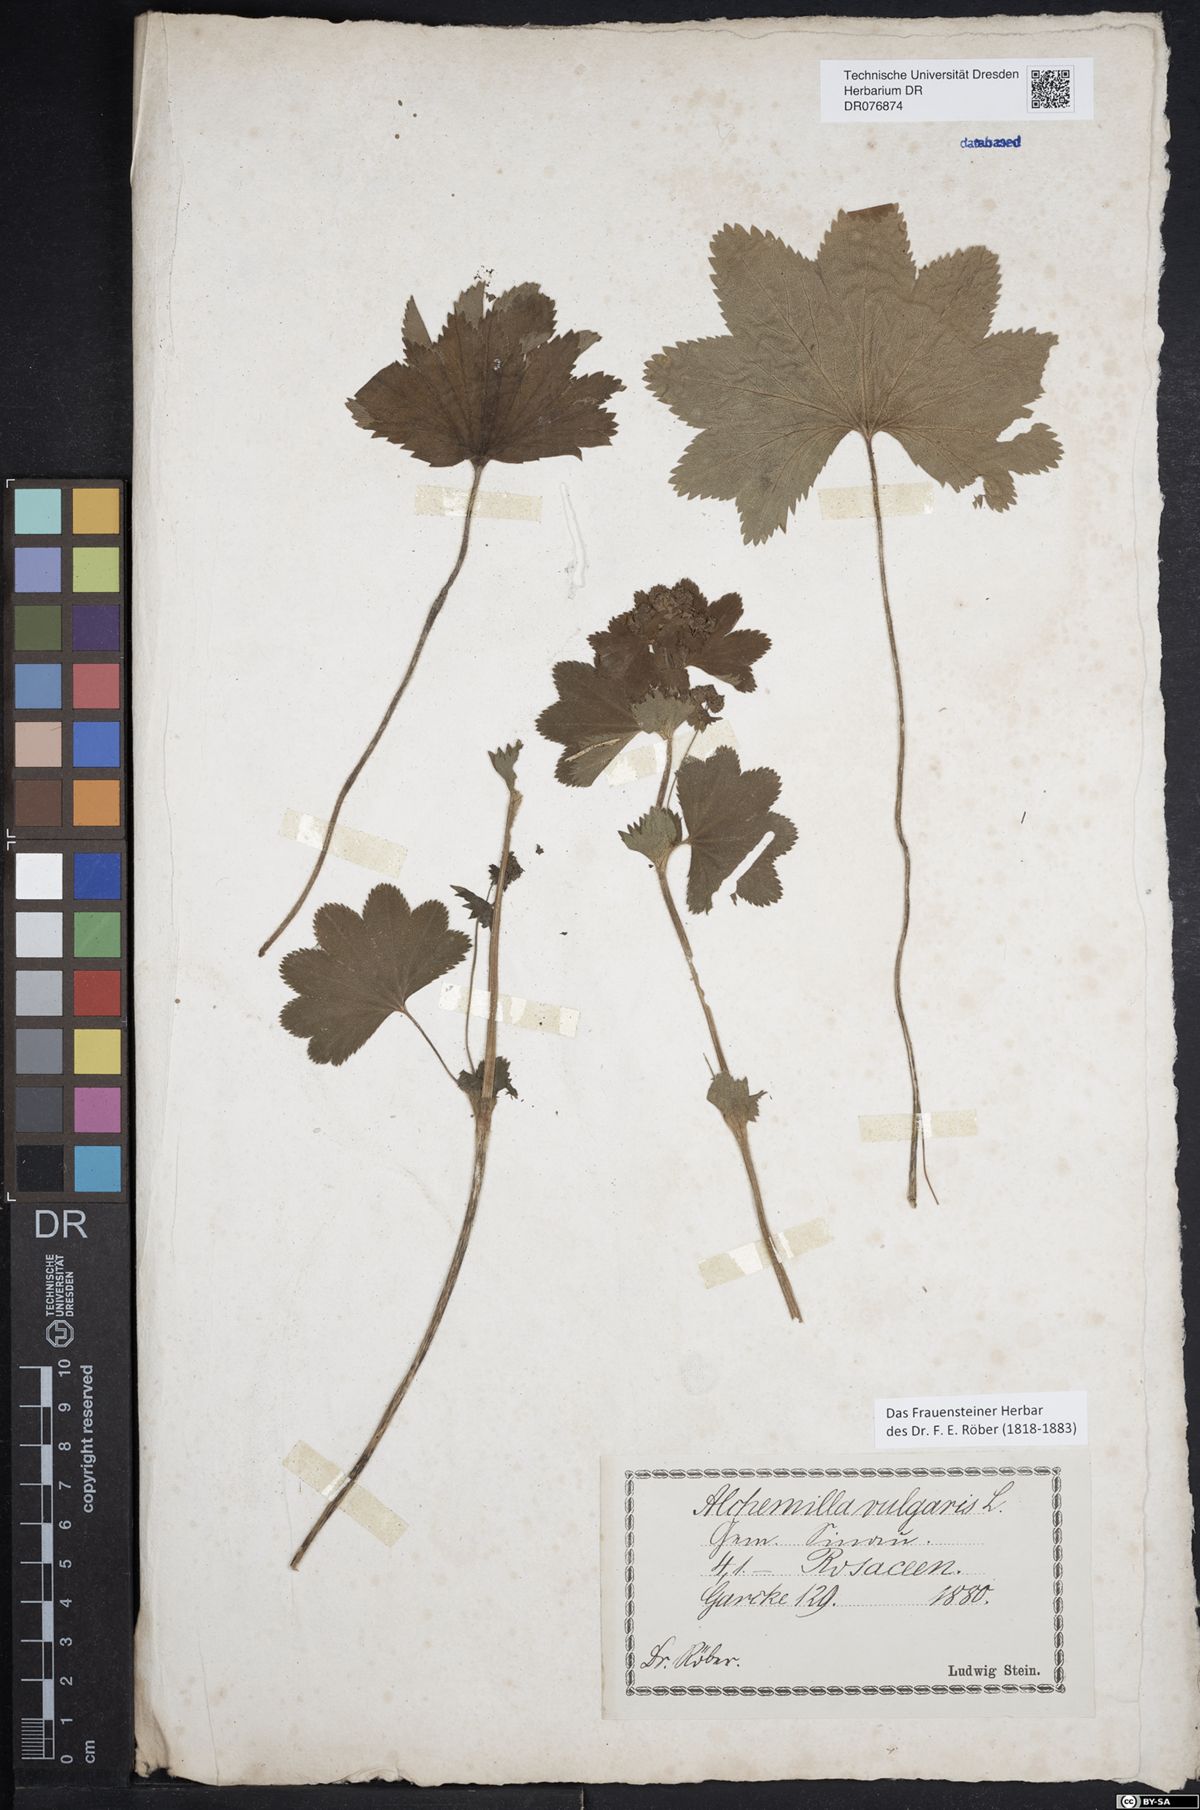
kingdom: Plantae
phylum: Tracheophyta
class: Magnoliopsida
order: Rosales
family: Rosaceae
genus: Alchemilla
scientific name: Alchemilla vulgaris
